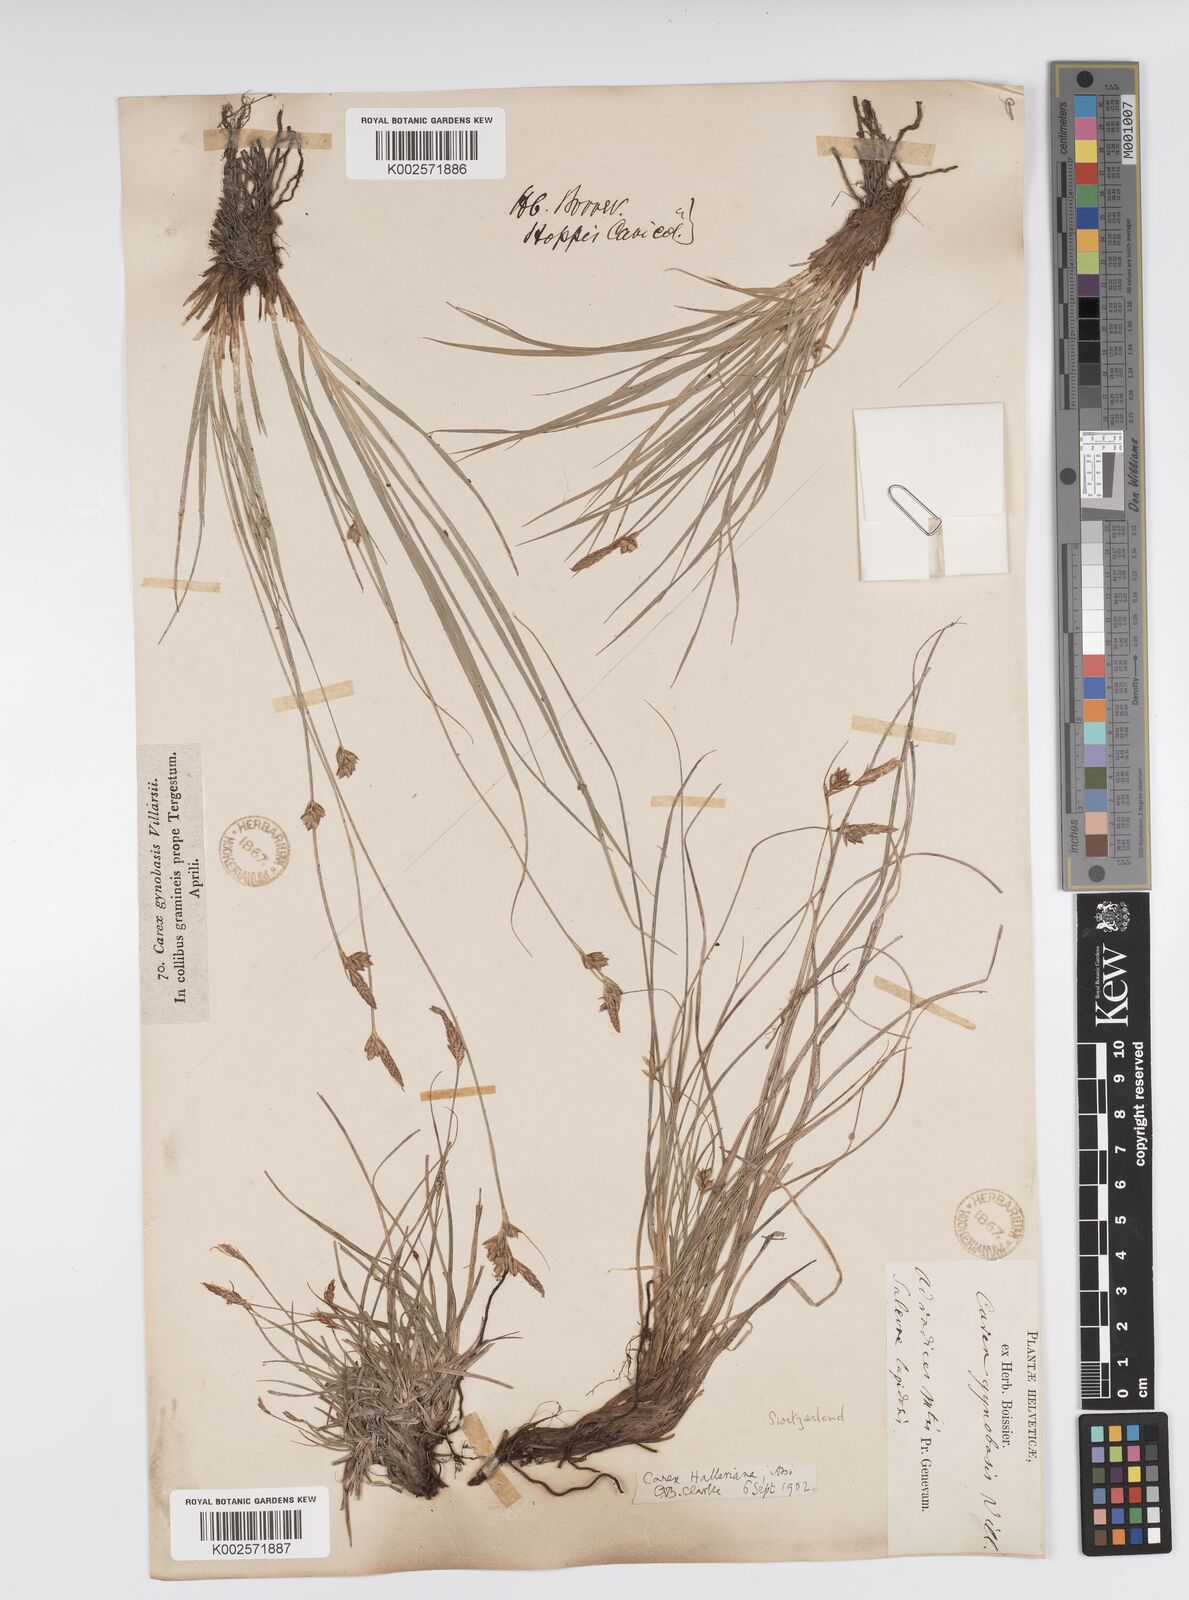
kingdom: Plantae
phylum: Tracheophyta
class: Liliopsida
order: Poales
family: Cyperaceae
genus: Carex
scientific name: Carex halleriana
